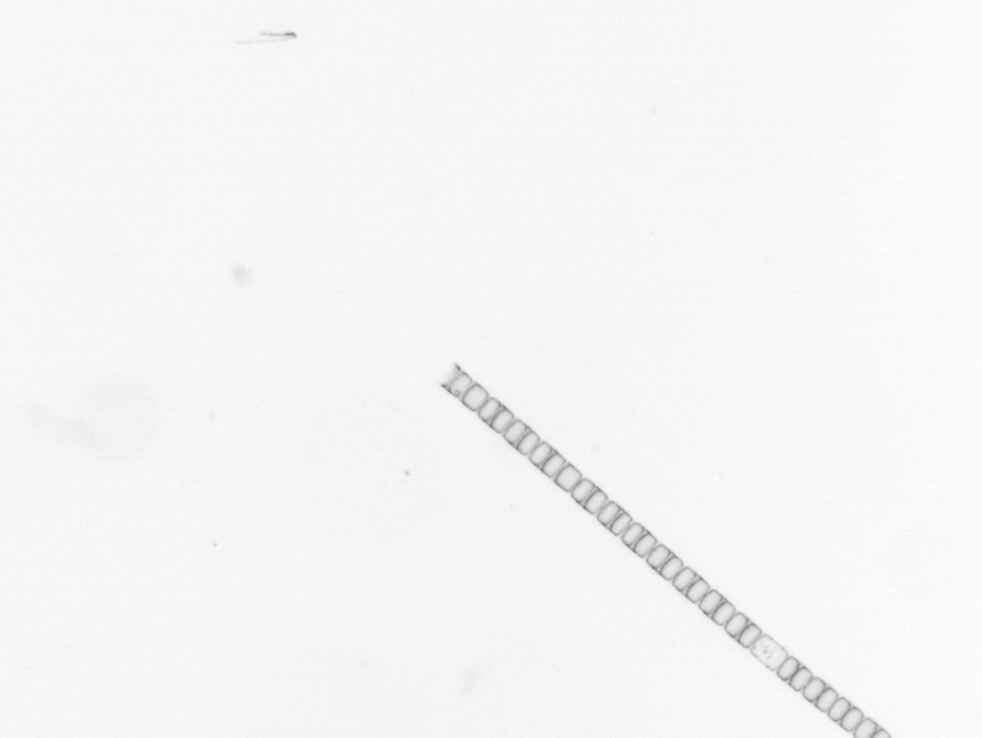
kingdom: Chromista
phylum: Ochrophyta
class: Bacillariophyceae
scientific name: Bacillariophyceae
